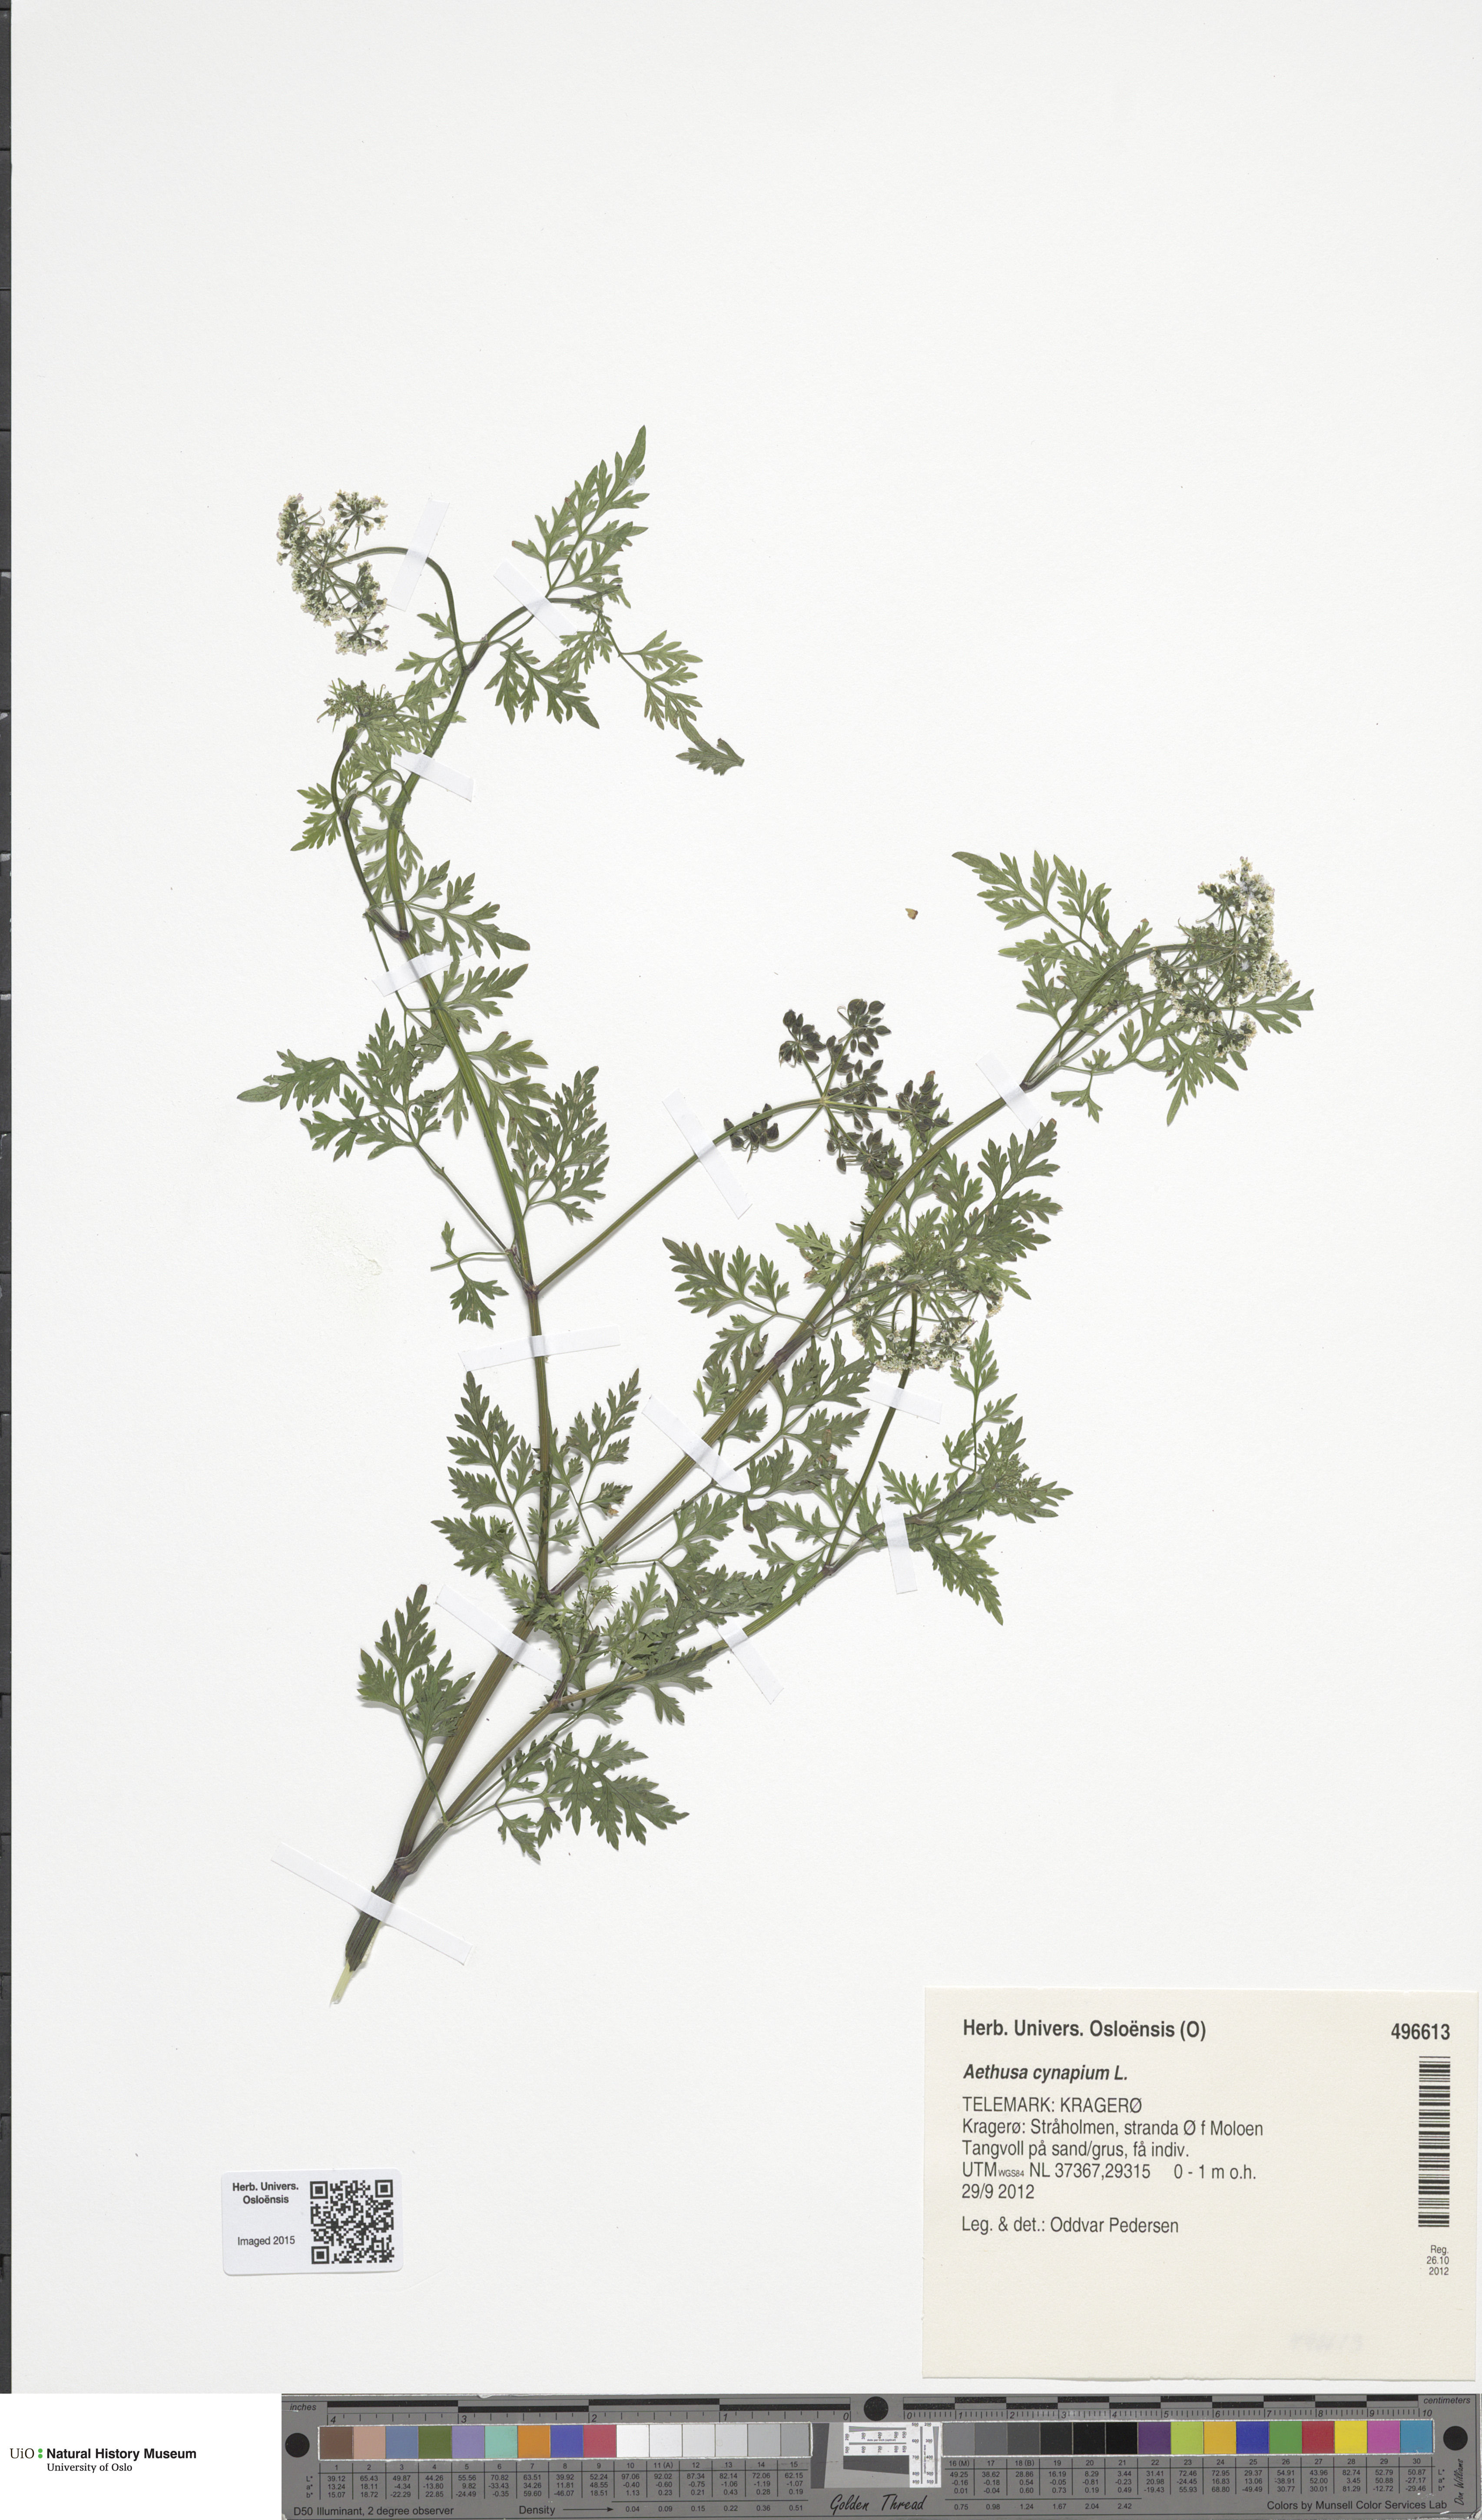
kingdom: Plantae
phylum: Tracheophyta
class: Magnoliopsida
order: Apiales
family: Apiaceae
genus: Aethusa
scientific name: Aethusa cynapium
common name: Fool's parsley
